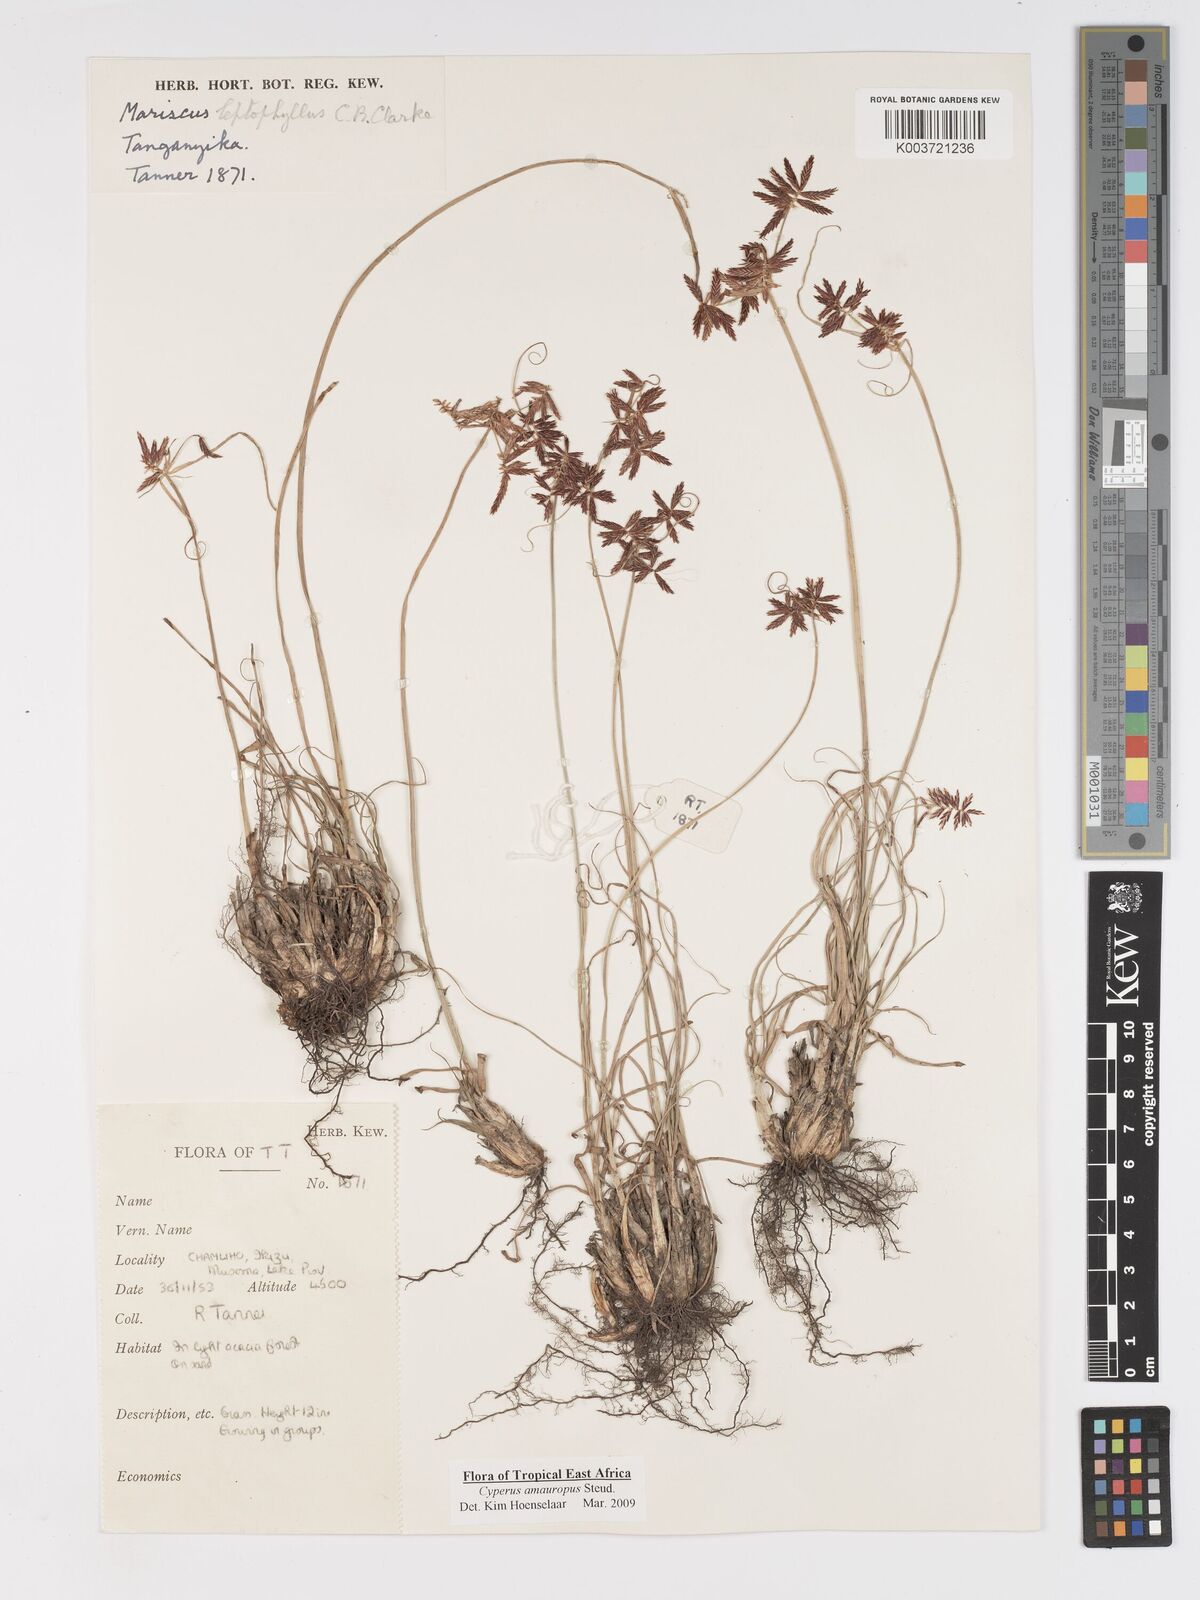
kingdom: Plantae
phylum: Tracheophyta
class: Liliopsida
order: Poales
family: Cyperaceae
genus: Cyperus
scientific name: Cyperus amauropus
